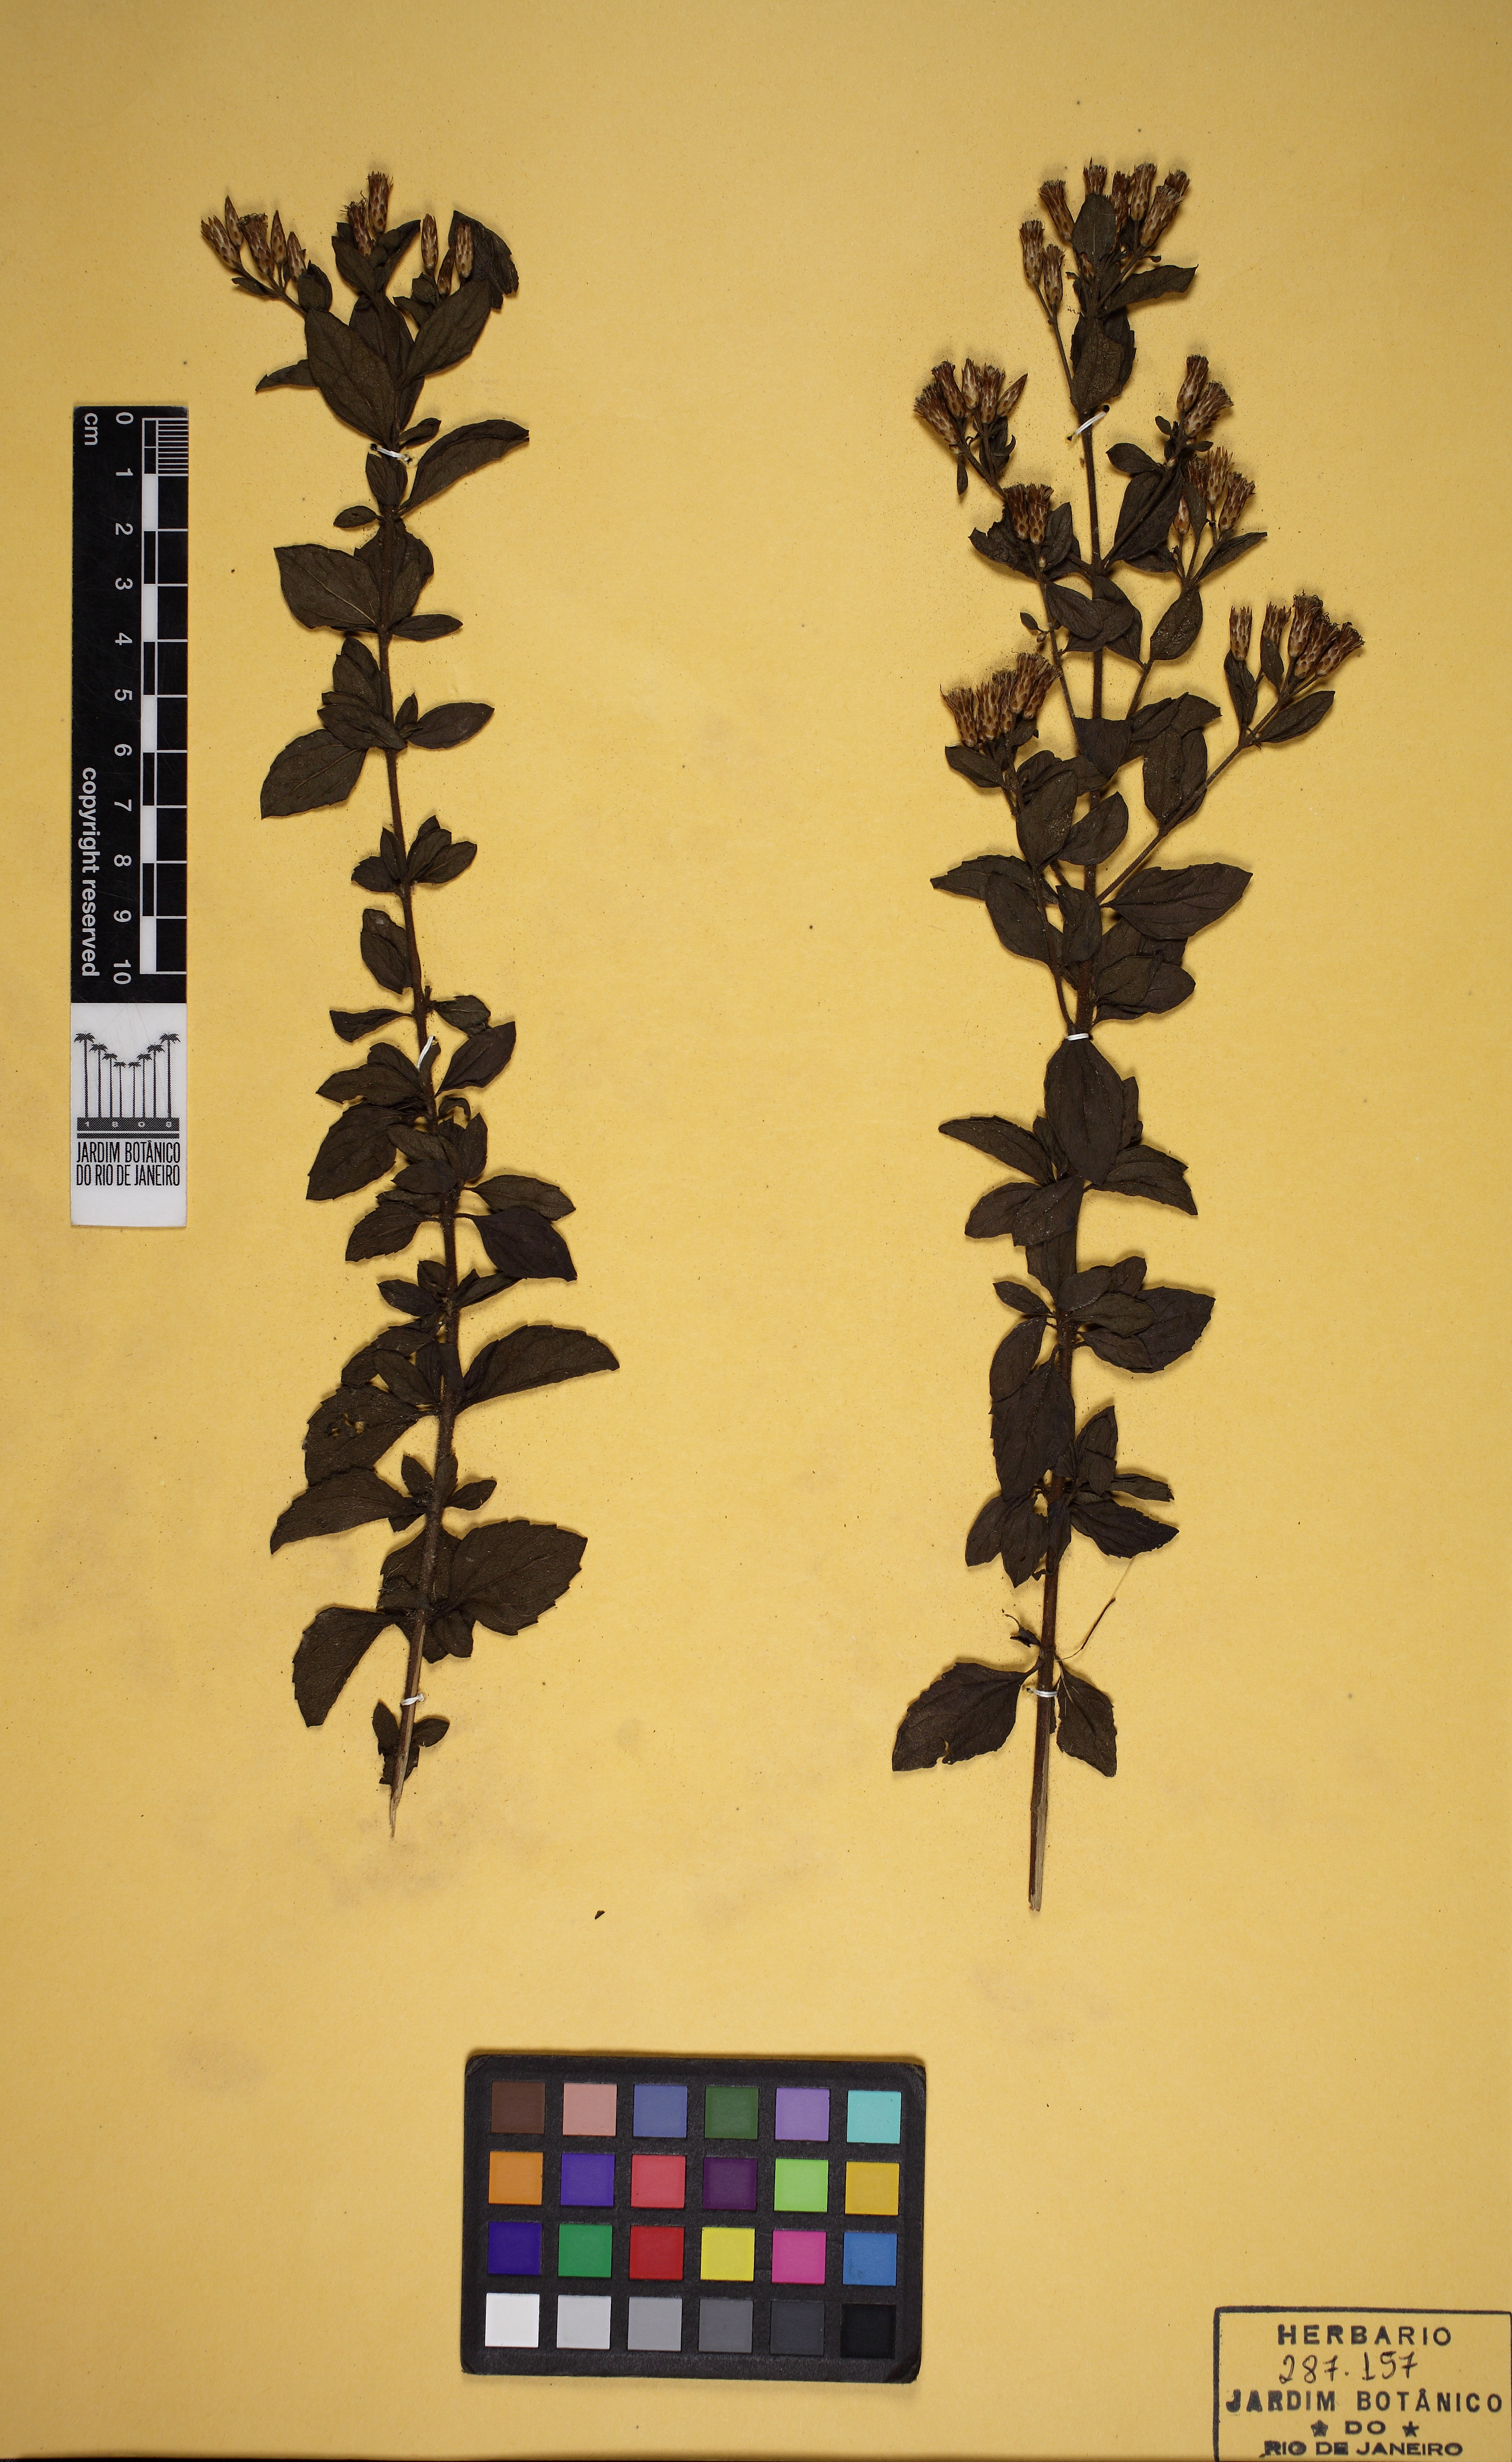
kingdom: Plantae
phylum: Tracheophyta
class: Magnoliopsida
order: Asterales
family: Asteraceae
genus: Chromolaena
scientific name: Chromolaena multiflosculosa
